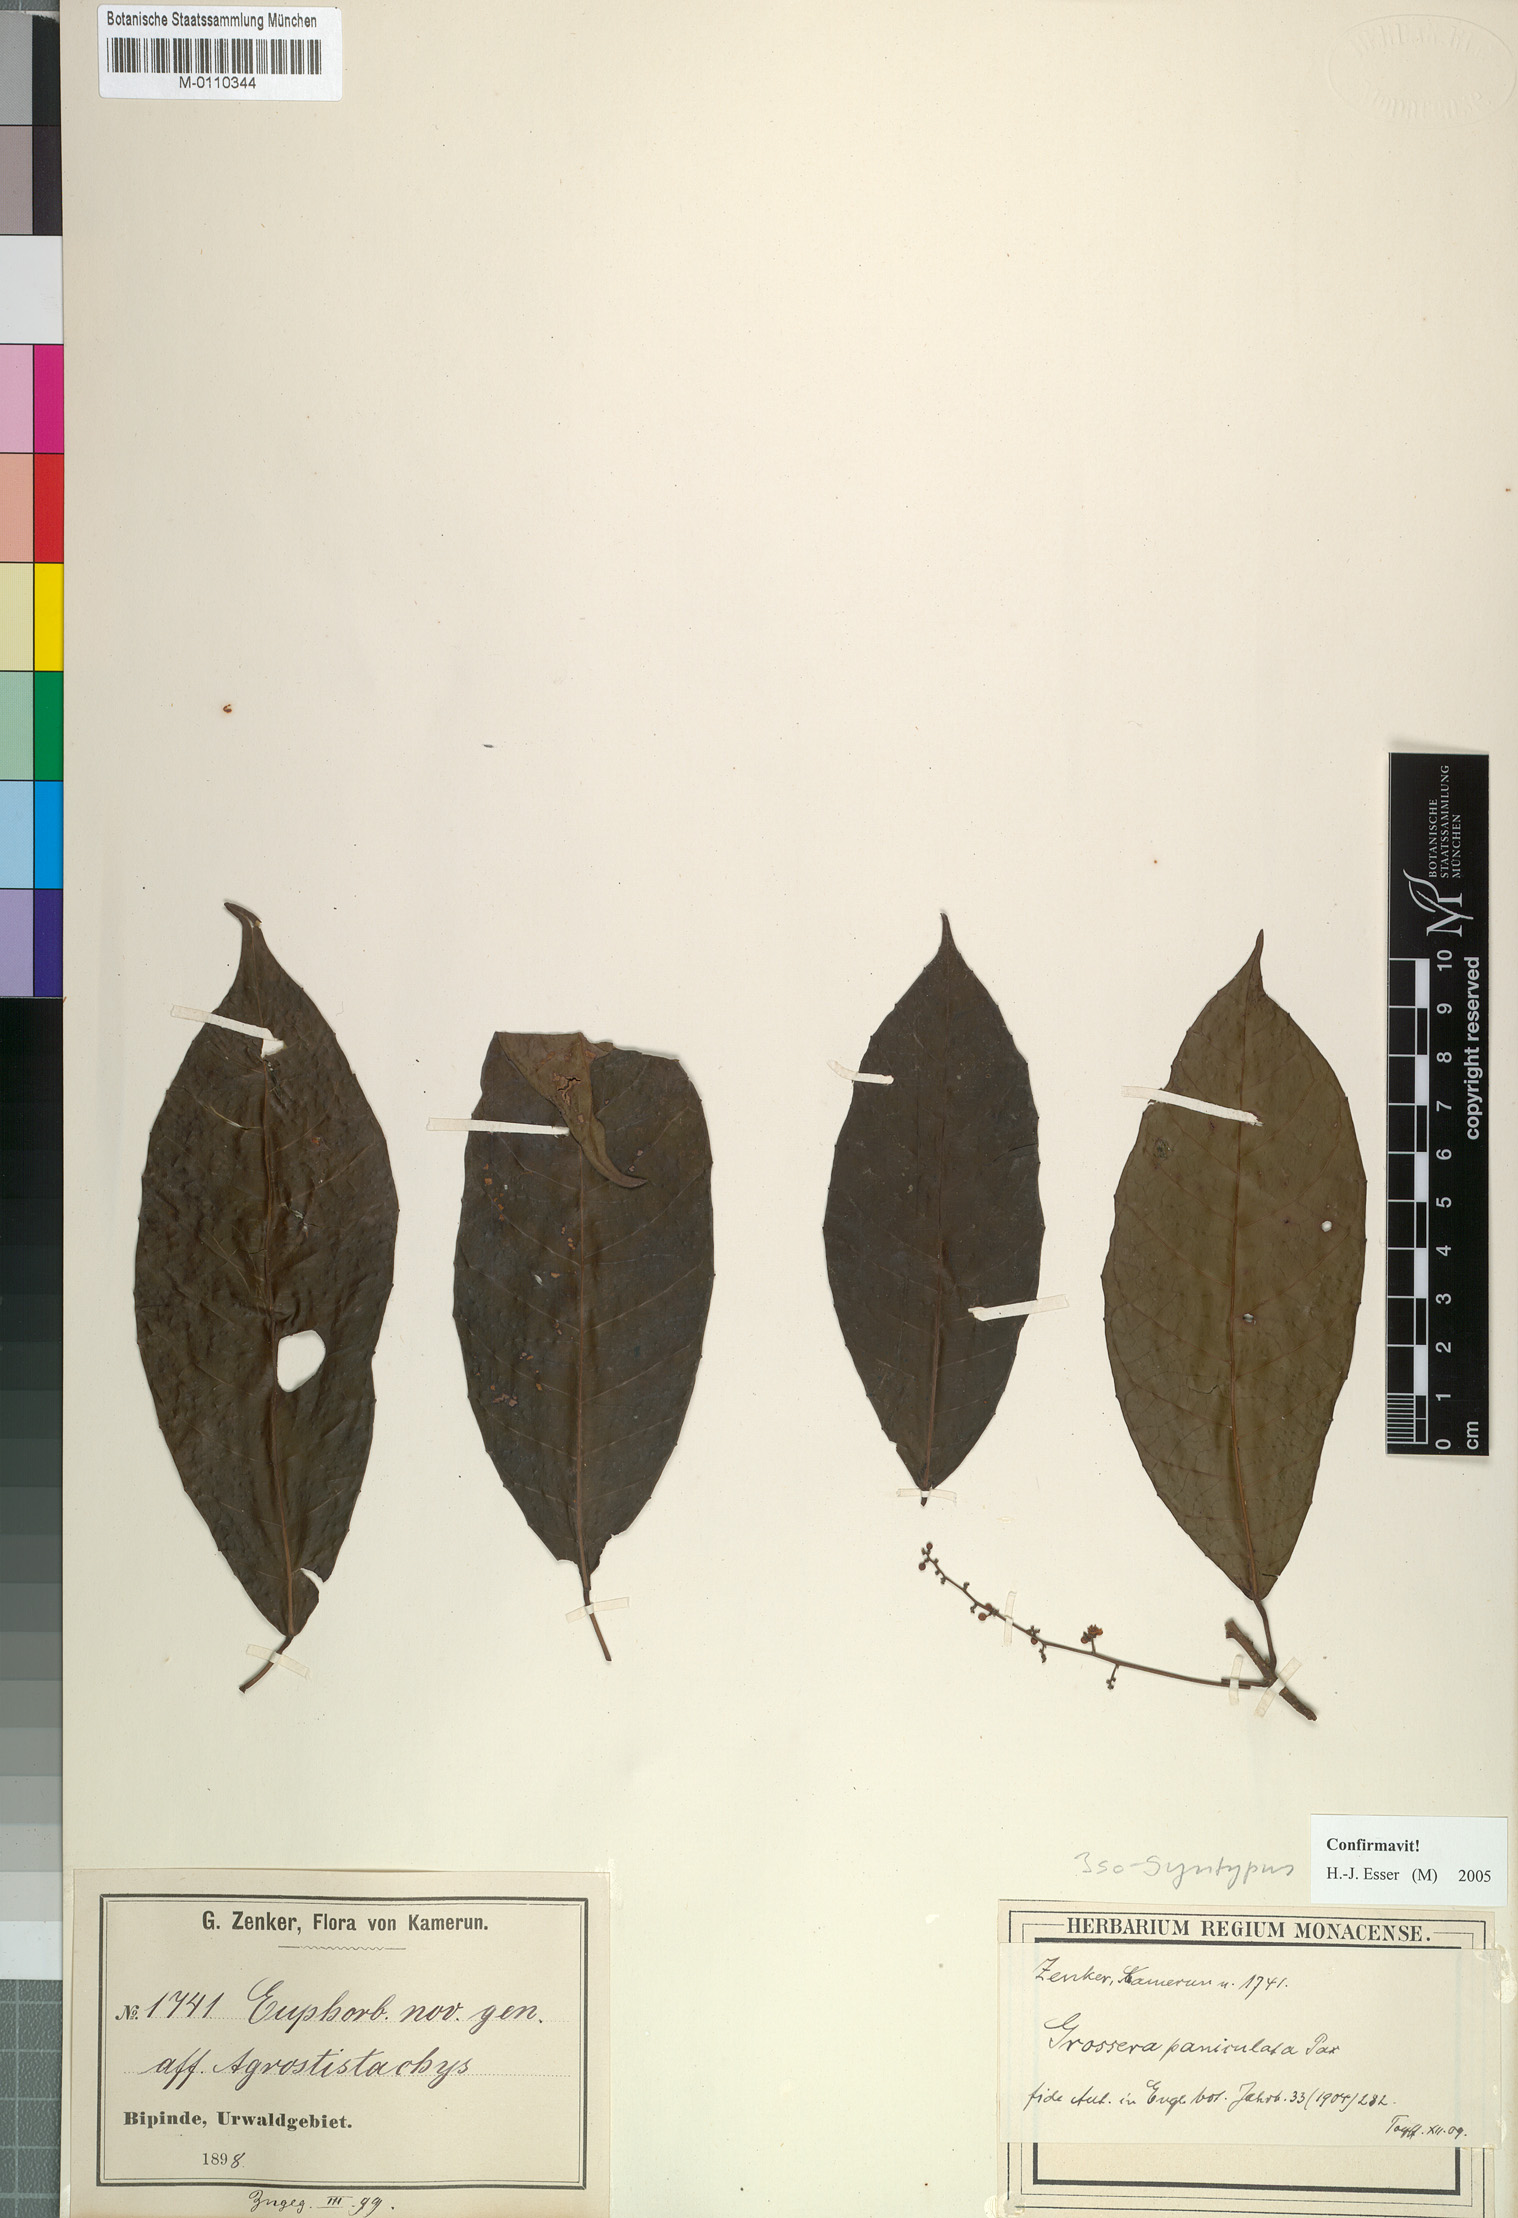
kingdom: Plantae
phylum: Tracheophyta
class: Magnoliopsida
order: Malpighiales
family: Euphorbiaceae
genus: Grossera
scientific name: Grossera paniculata
